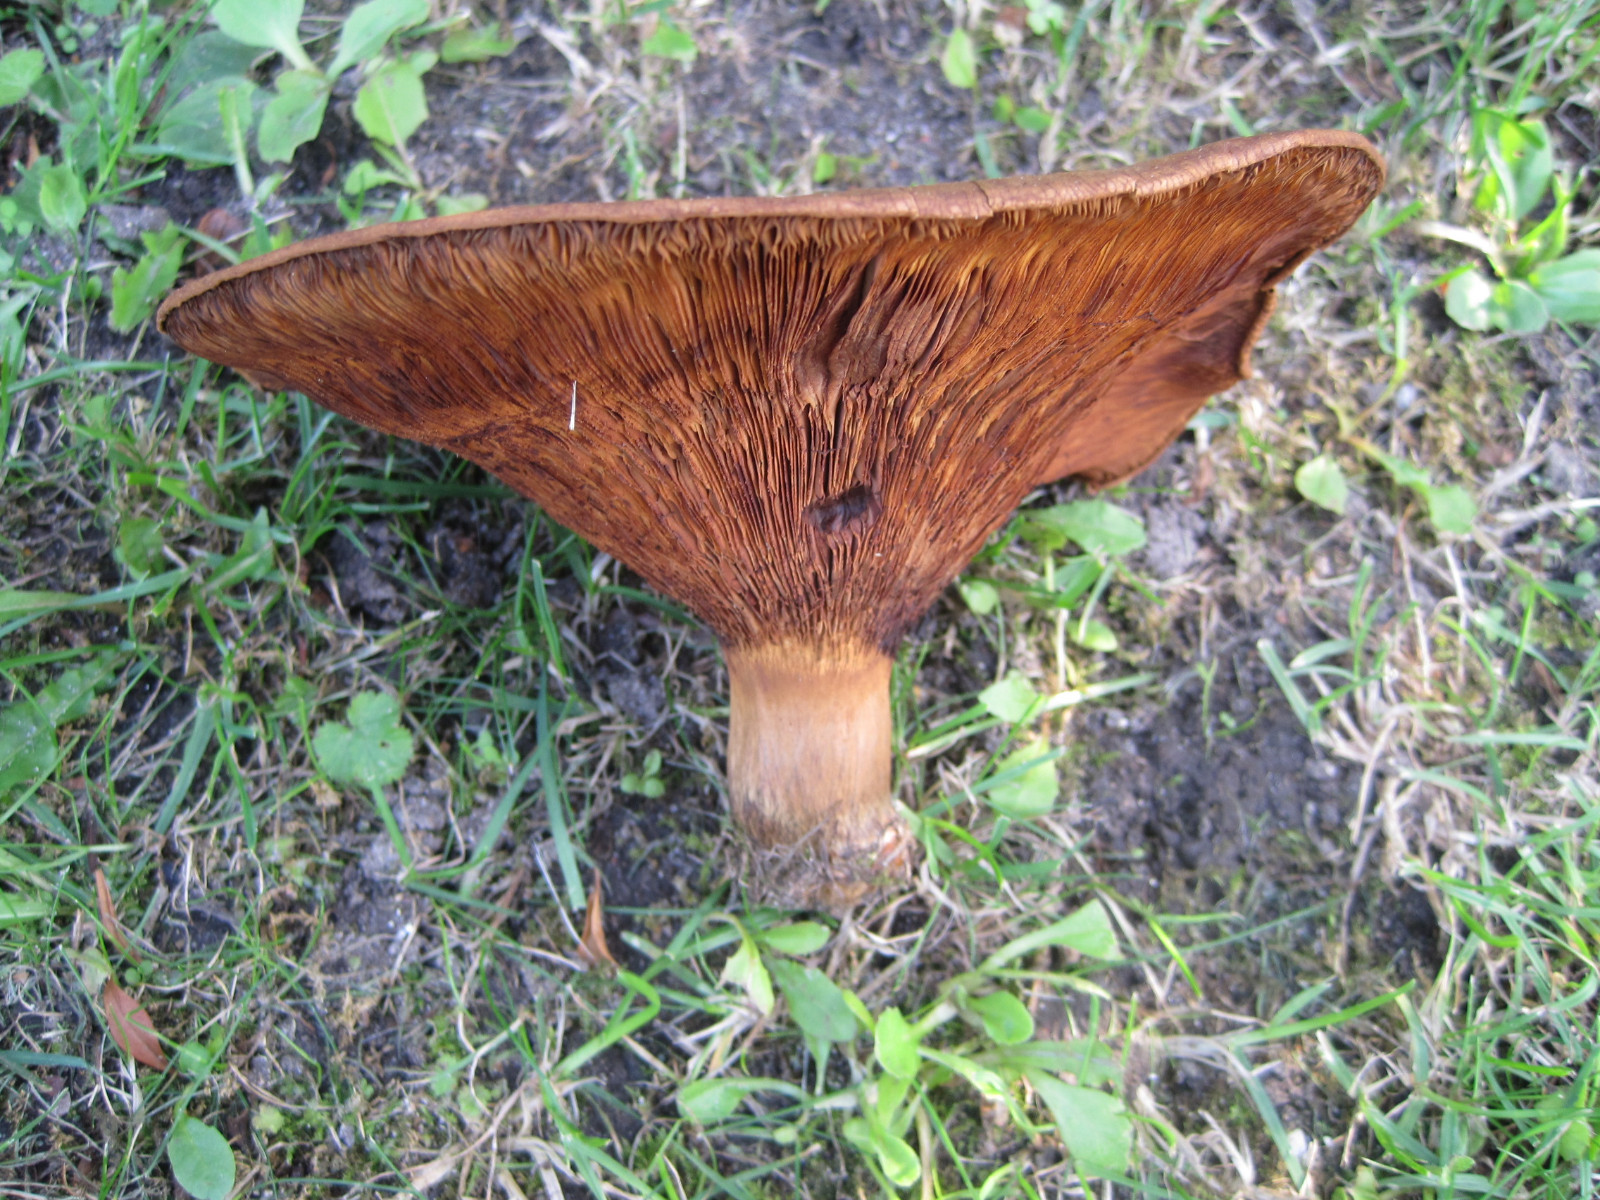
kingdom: Fungi
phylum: Basidiomycota
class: Agaricomycetes
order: Boletales
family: Paxillaceae
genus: Paxillus
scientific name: Paxillus obscurisporus
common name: mahognisporet netbladhat
